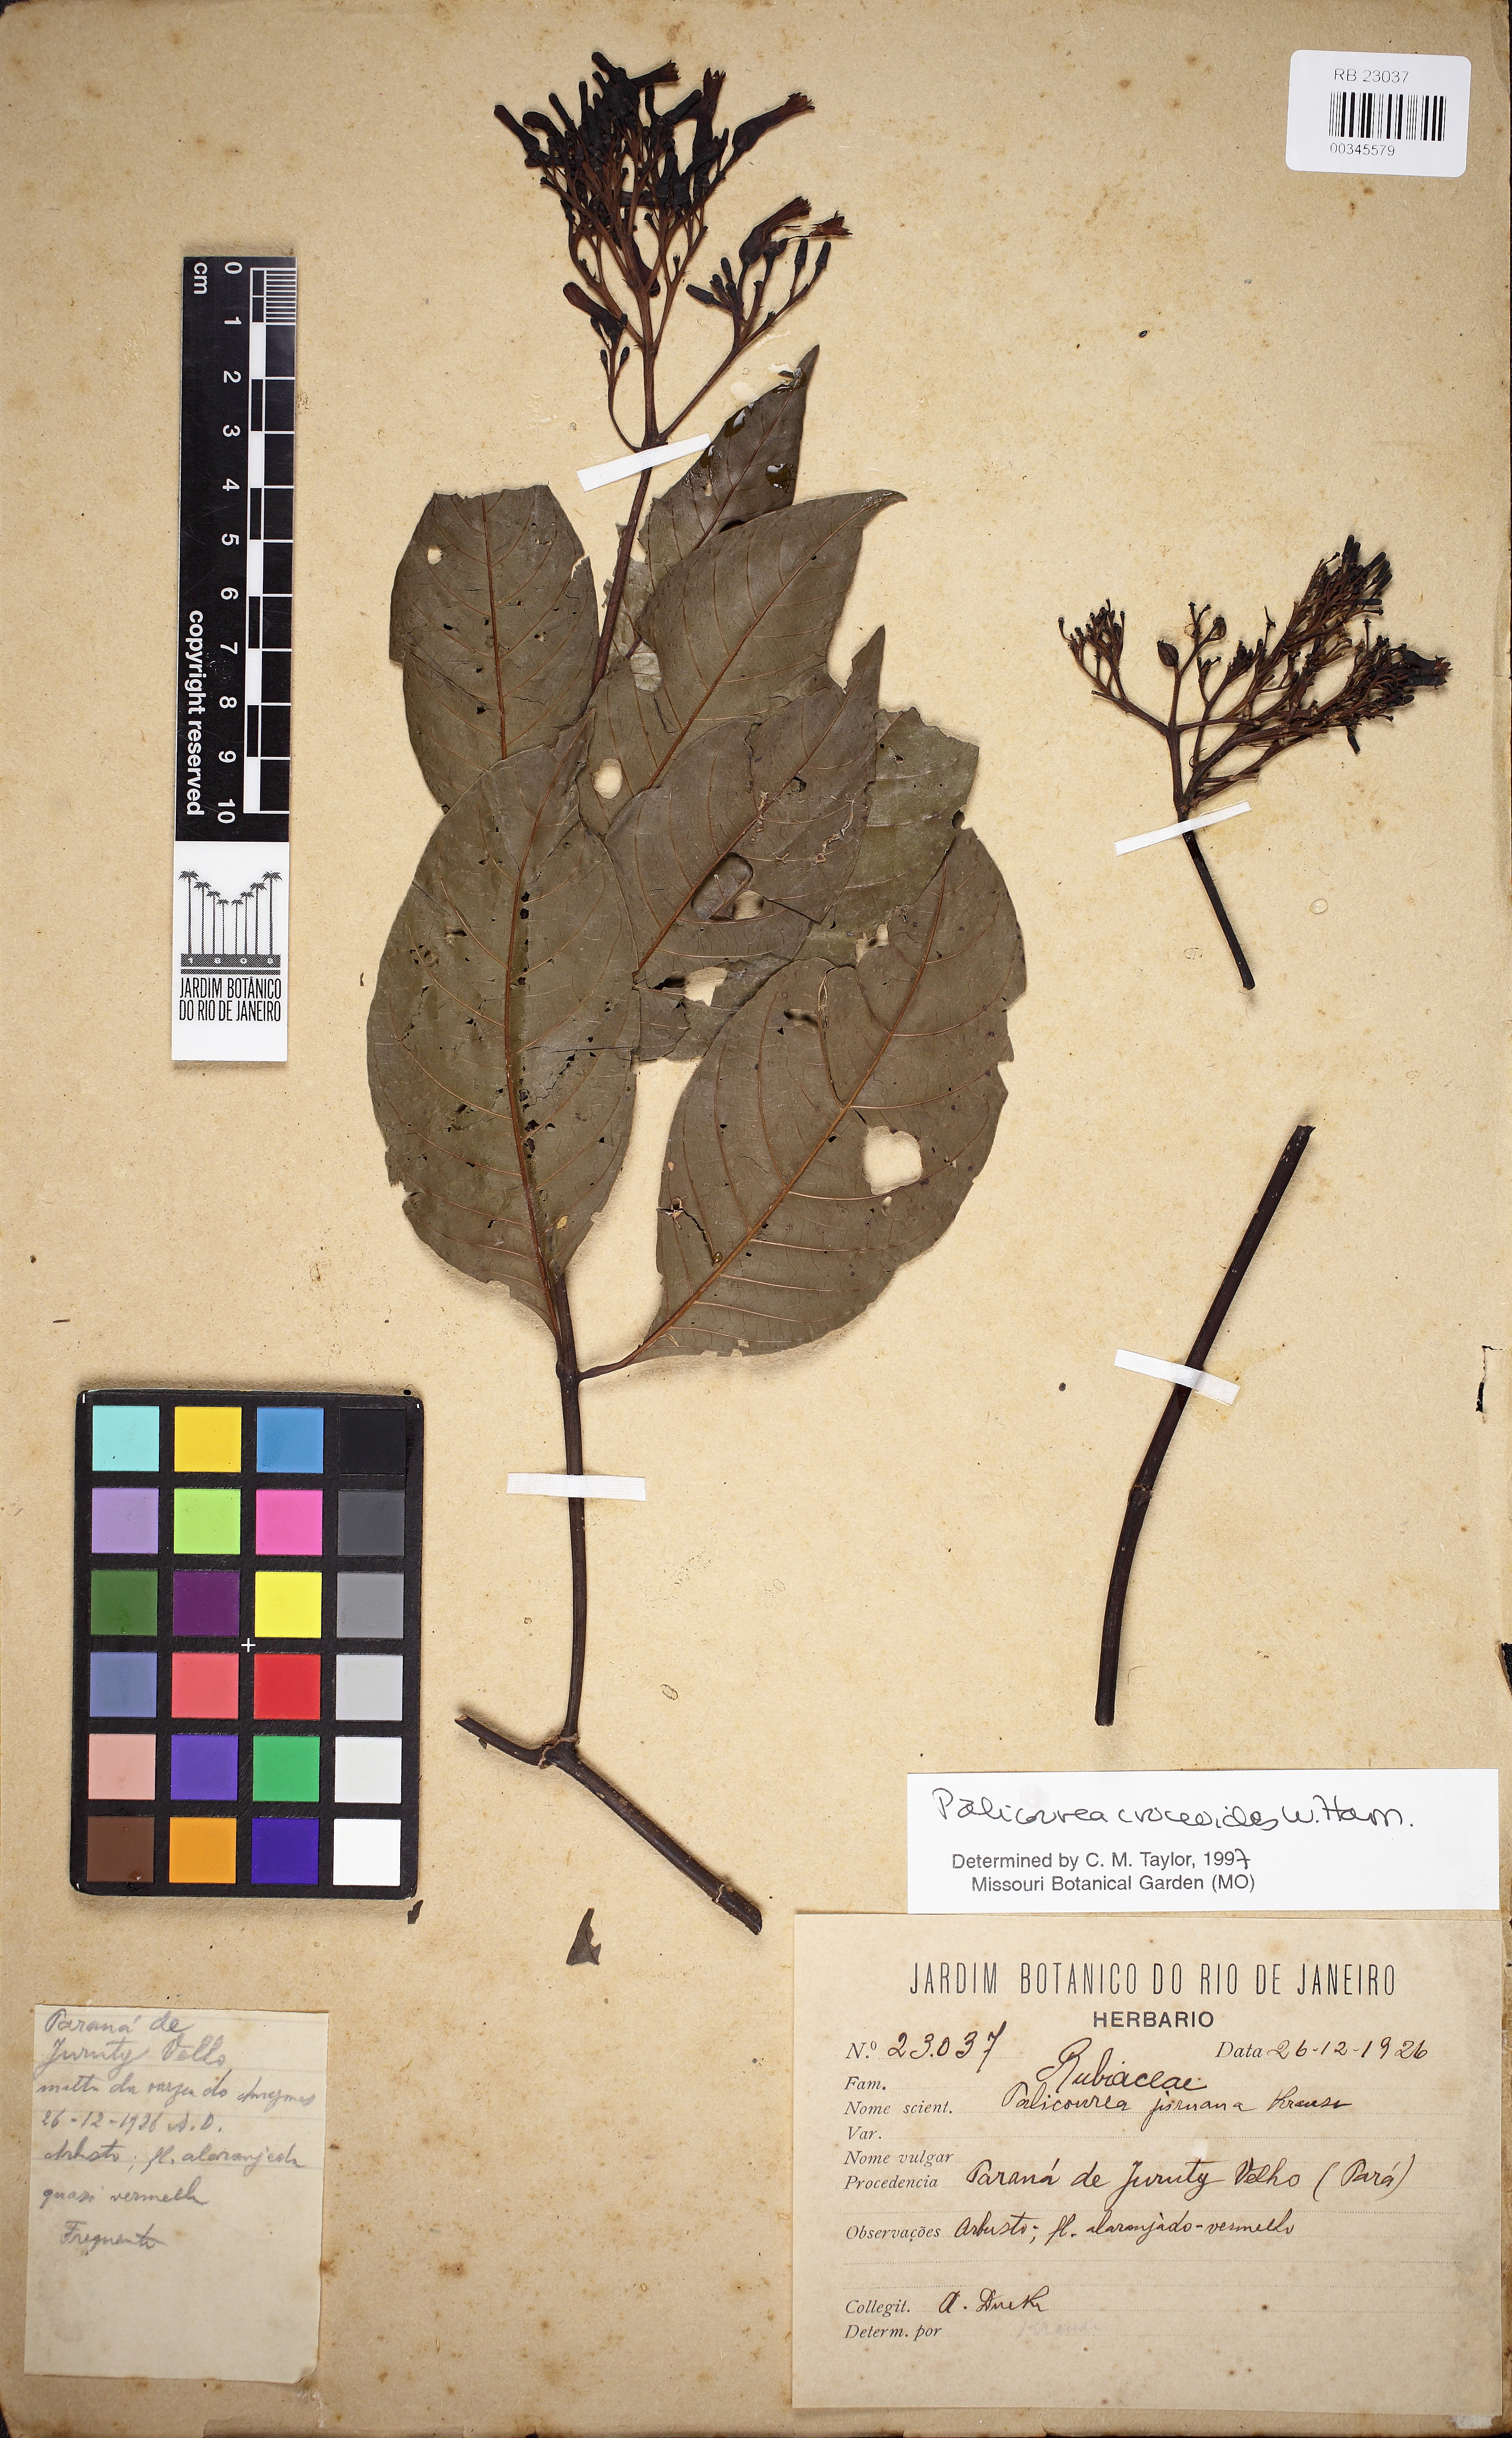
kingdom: Plantae
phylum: Tracheophyta
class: Magnoliopsida
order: Gentianales
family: Rubiaceae
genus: Palicourea
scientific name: Palicourea
